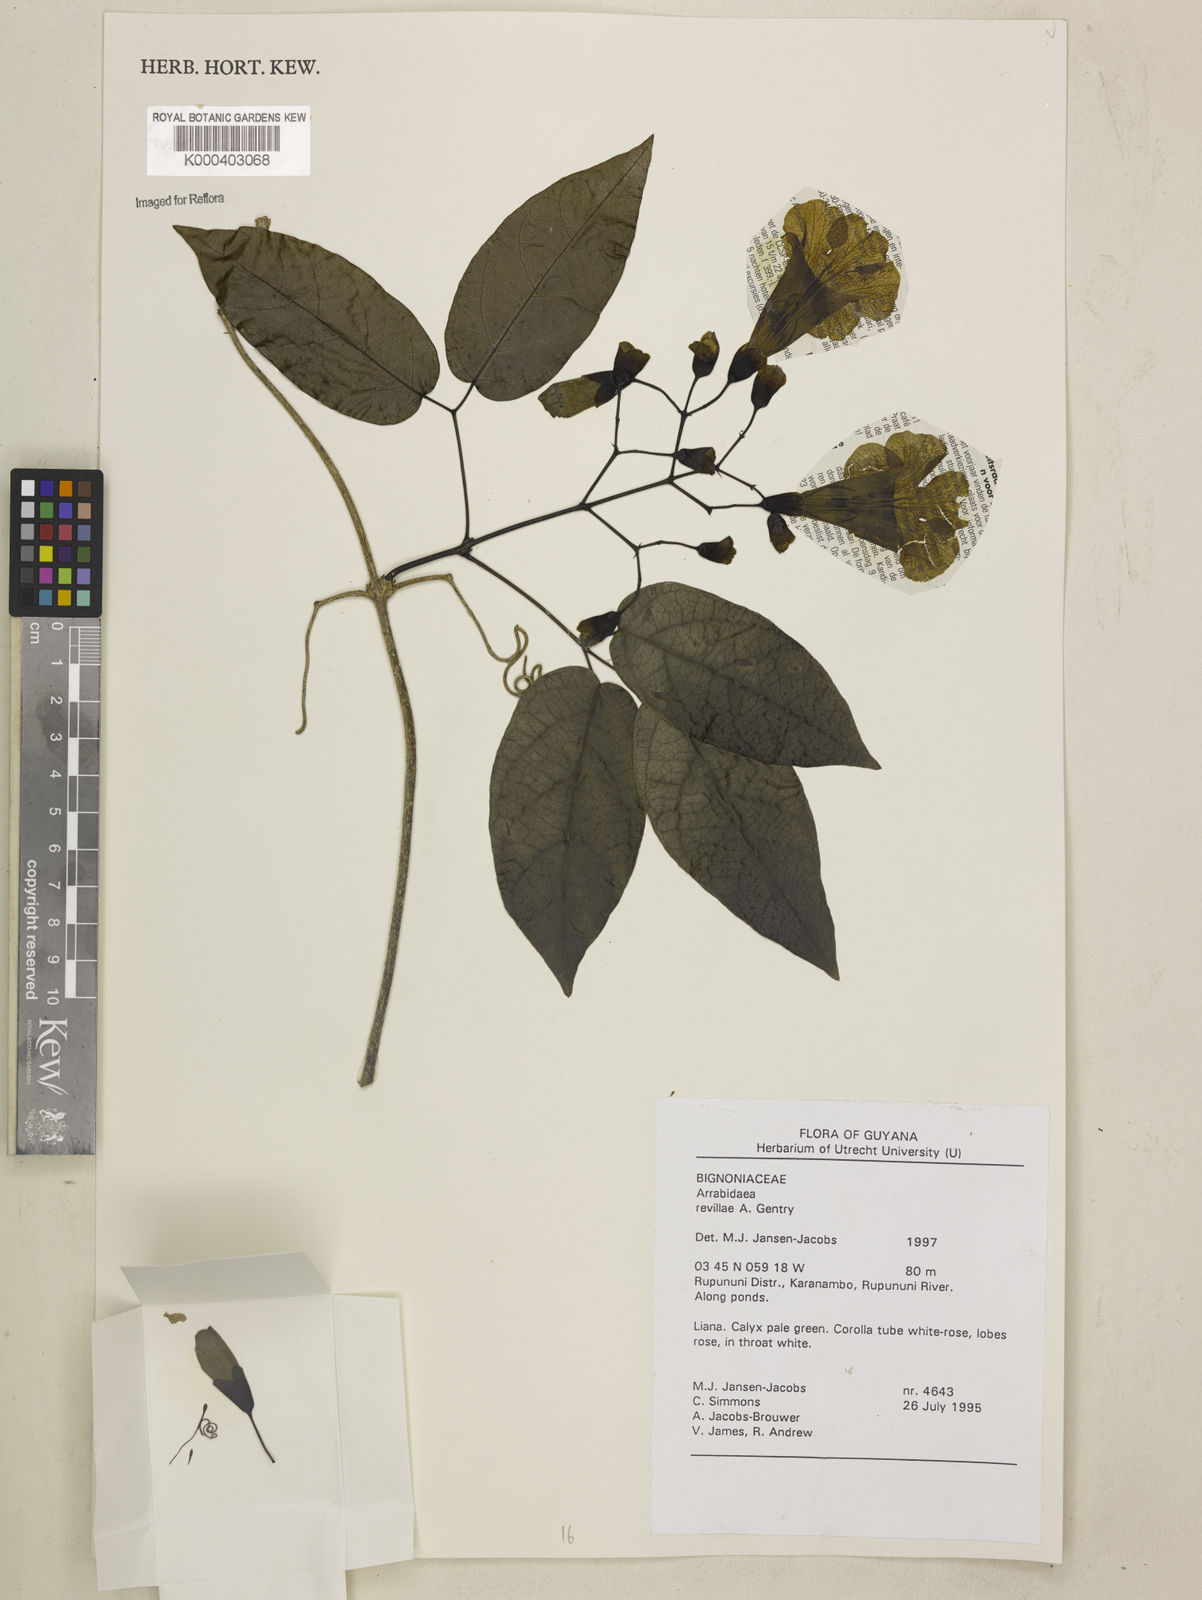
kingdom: Plantae
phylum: Tracheophyta
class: Magnoliopsida
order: Lamiales
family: Bignoniaceae
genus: Tanaecium
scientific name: Tanaecium revillae
